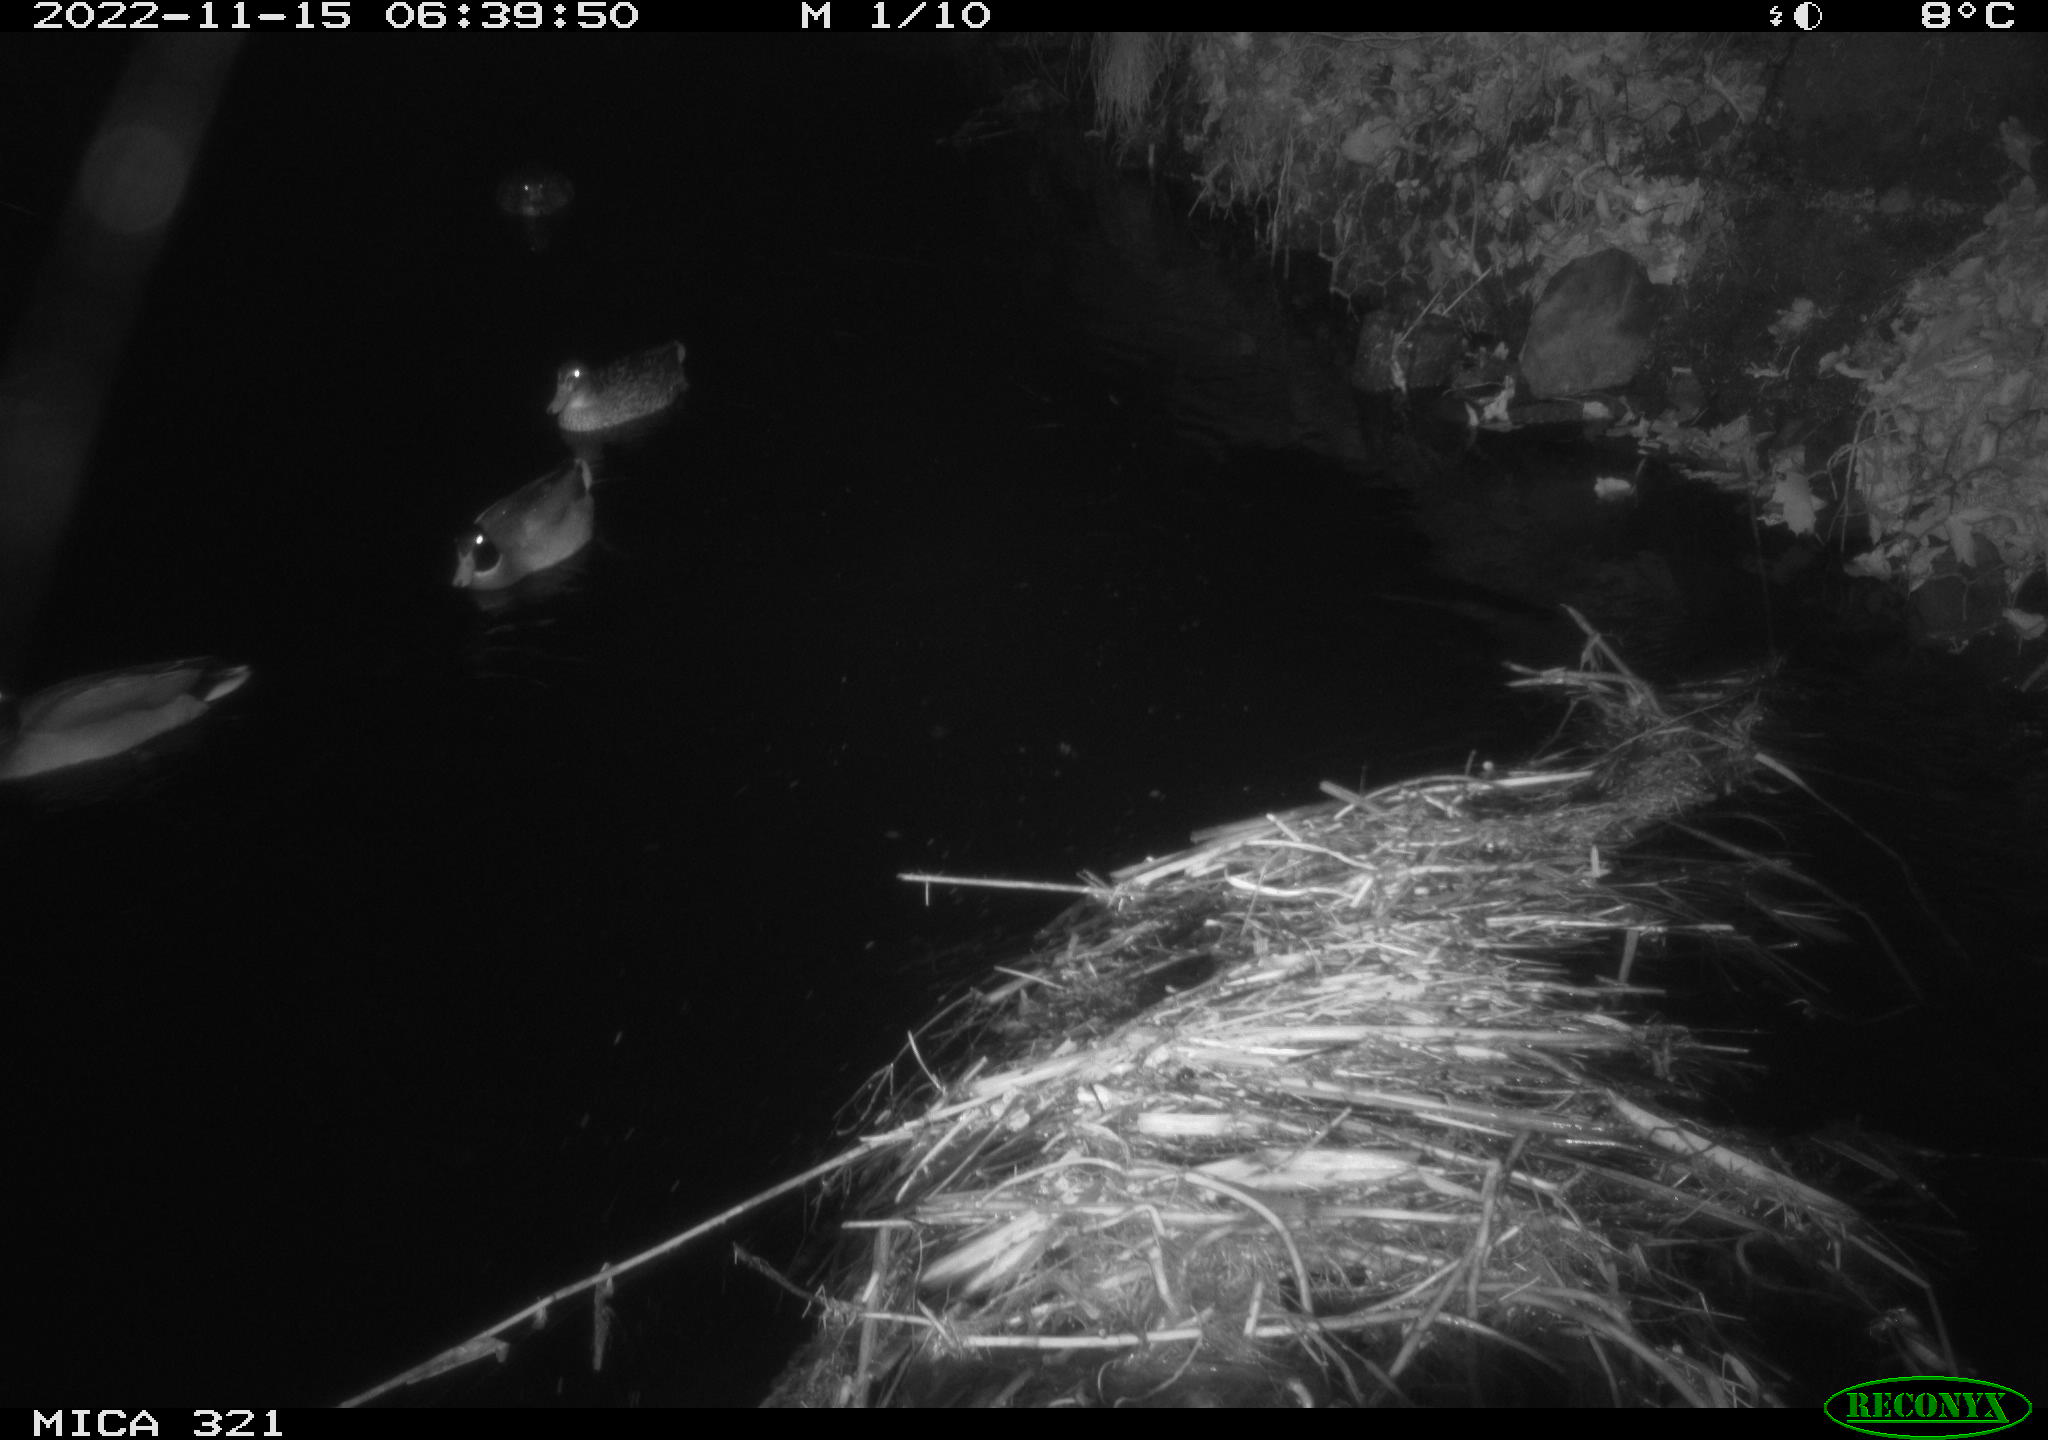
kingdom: Animalia
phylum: Chordata
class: Aves
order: Anseriformes
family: Anatidae
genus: Anas
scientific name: Anas
